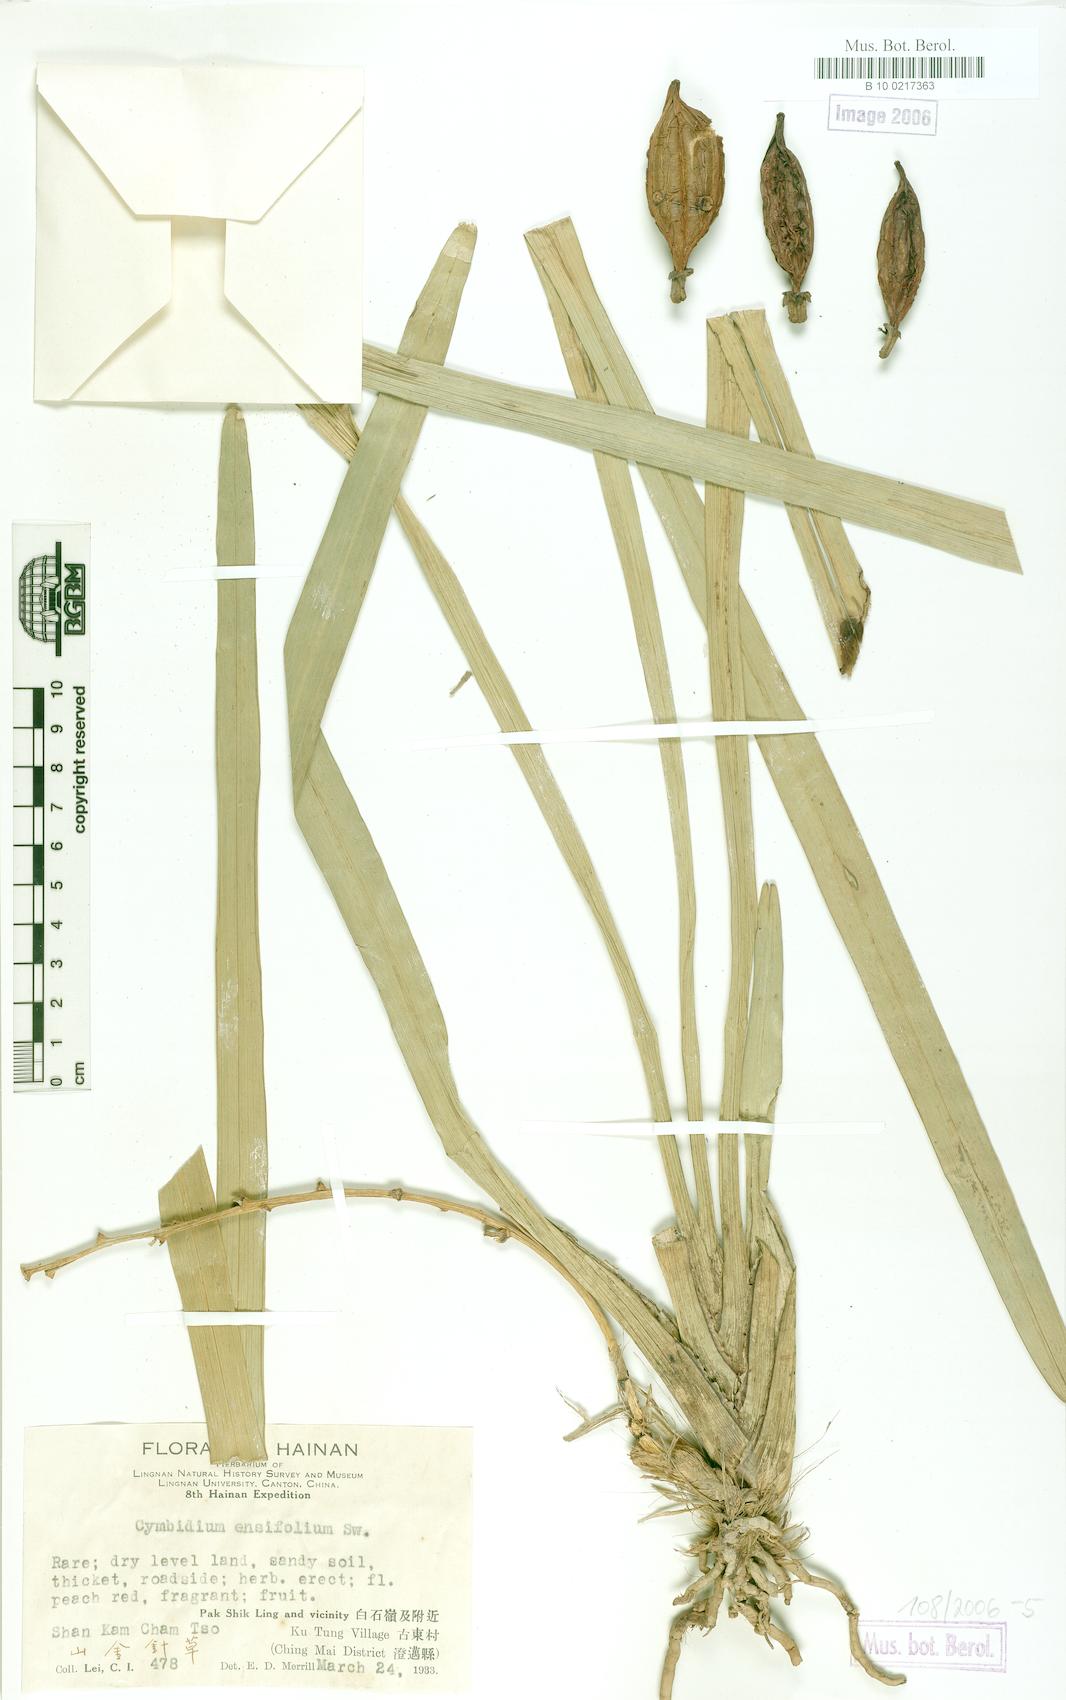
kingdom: Plantae
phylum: Tracheophyta
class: Liliopsida
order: Asparagales
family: Orchidaceae
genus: Cymbidium
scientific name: Cymbidium ensifolium
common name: Fukien-orchid
